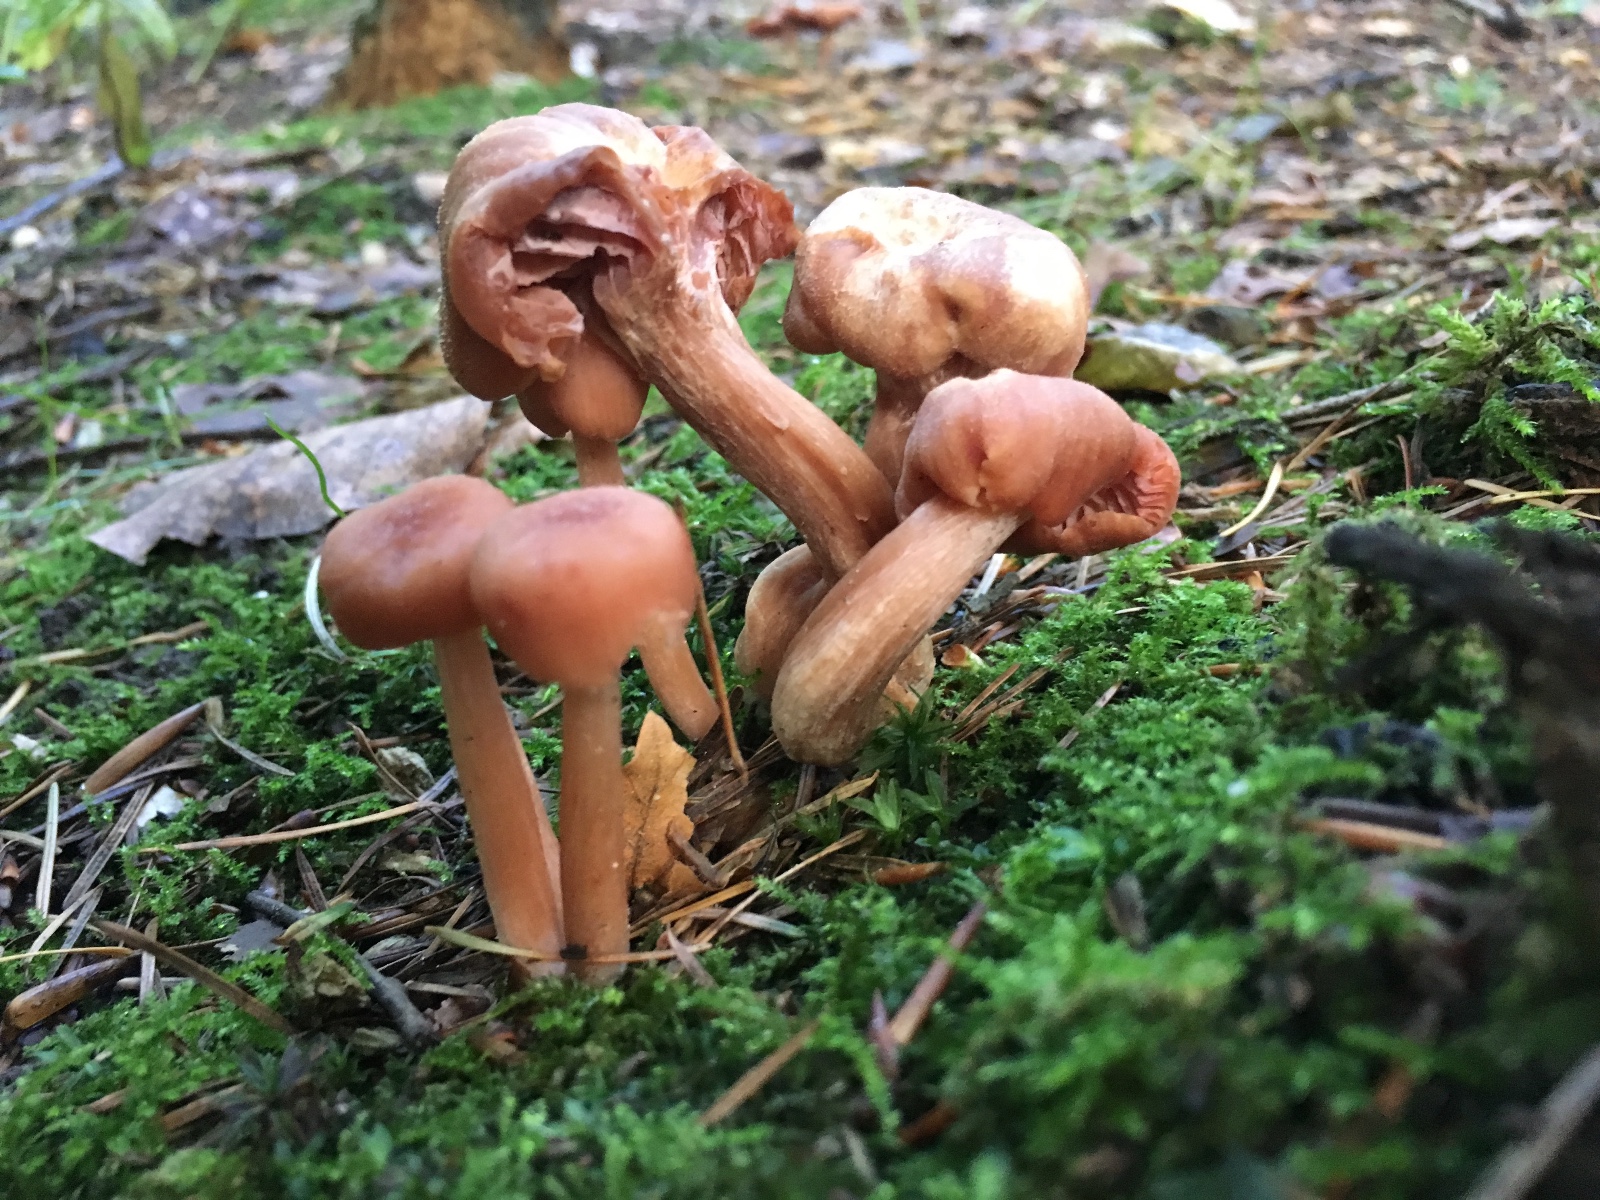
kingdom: Fungi
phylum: Basidiomycota
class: Agaricomycetes
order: Agaricales
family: Hydnangiaceae
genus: Laccaria
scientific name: Laccaria laccata
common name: rød ametysthat
